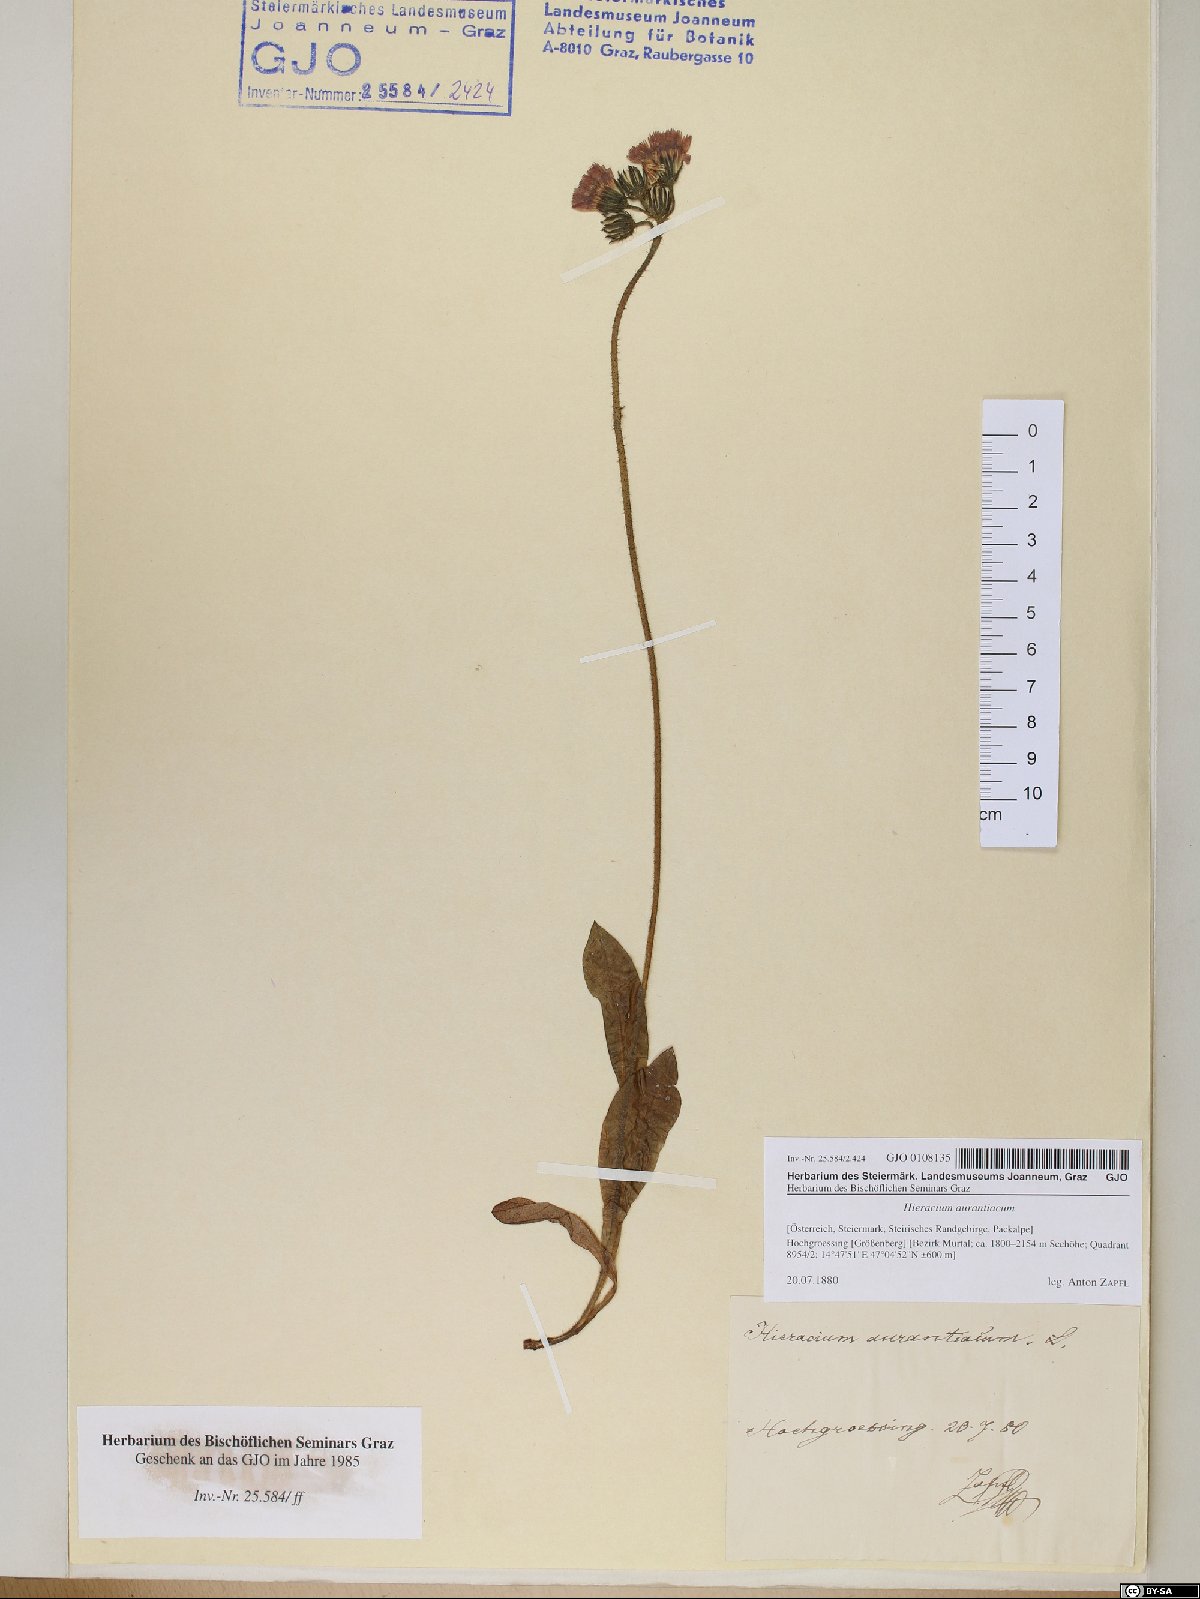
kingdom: Plantae
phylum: Tracheophyta
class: Magnoliopsida
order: Asterales
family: Asteraceae
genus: Pilosella
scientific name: Pilosella aurantiaca
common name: Fox-and-cubs
